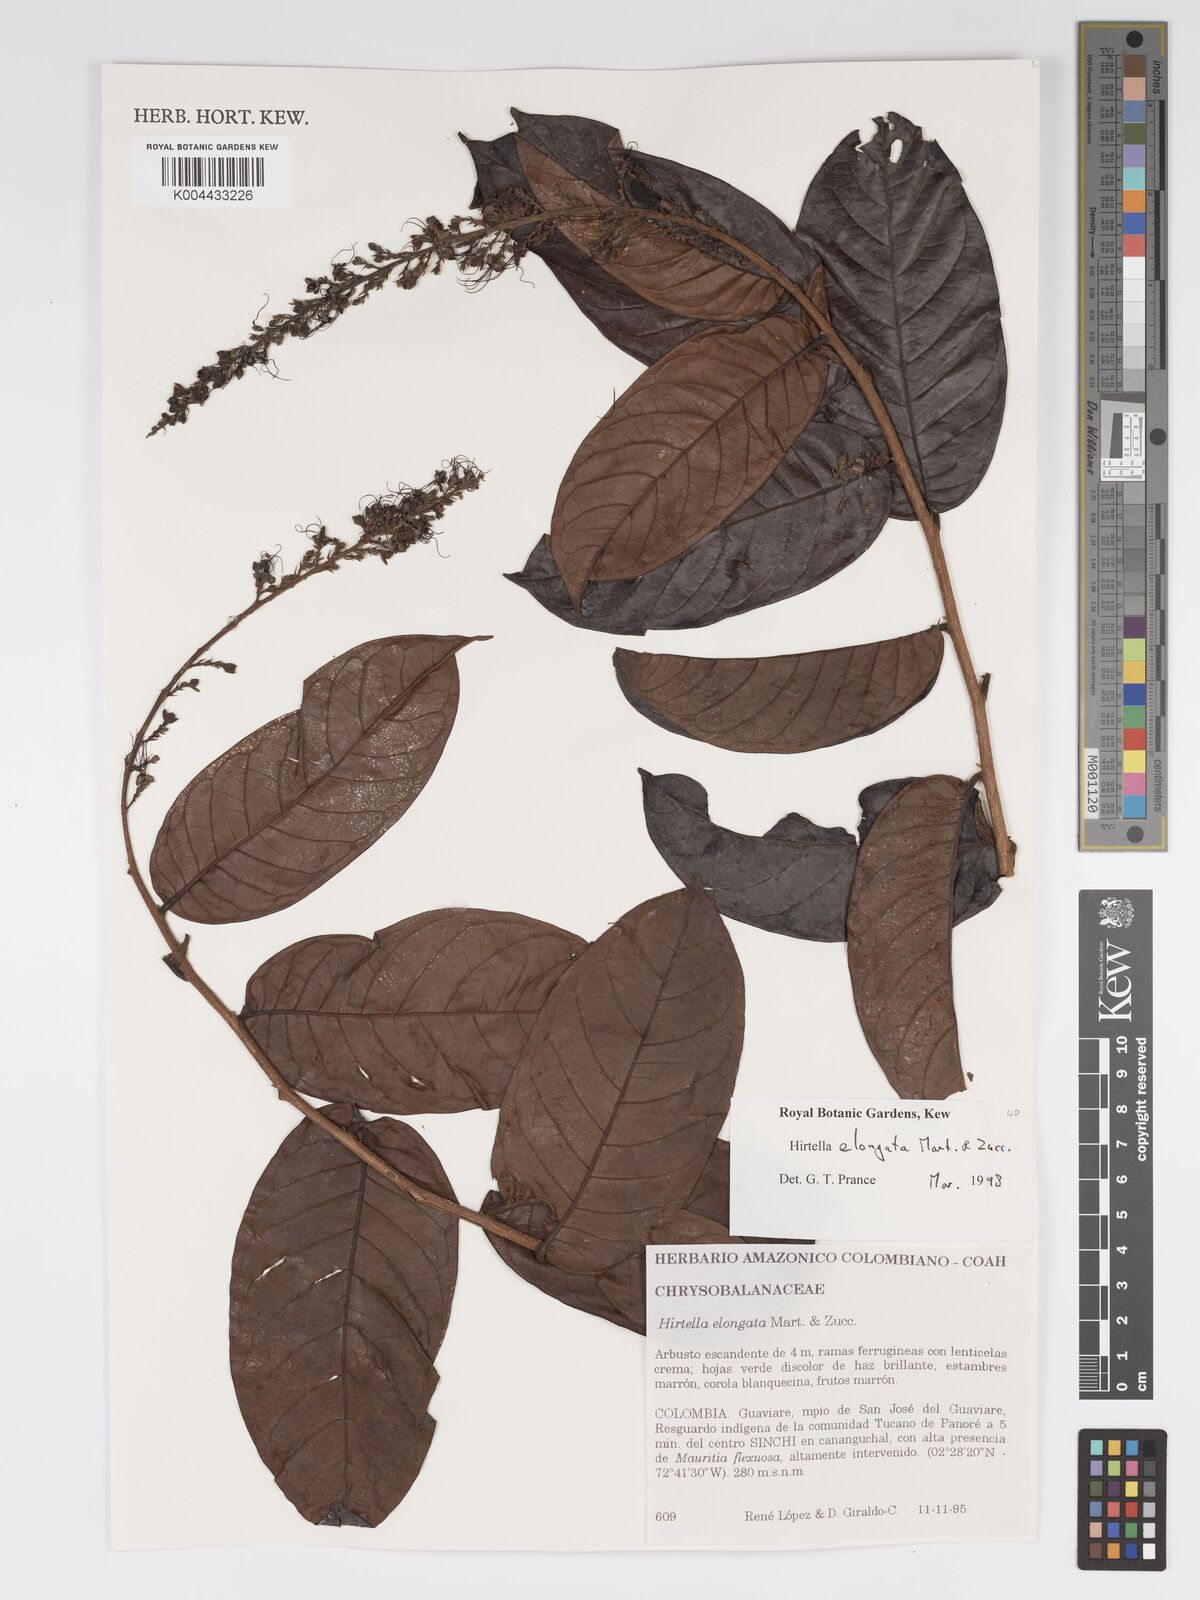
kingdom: Plantae
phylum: Tracheophyta
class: Magnoliopsida
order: Malpighiales
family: Chrysobalanaceae
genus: Hirtella
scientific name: Hirtella elongata
